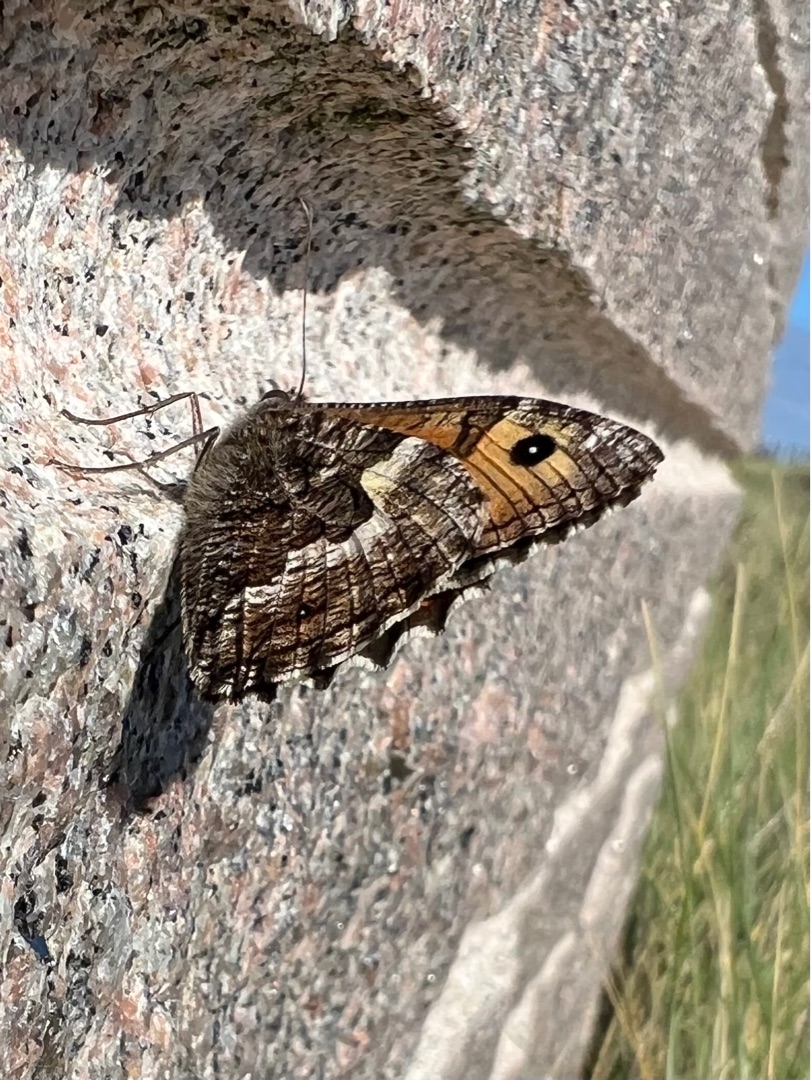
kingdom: Animalia
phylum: Arthropoda
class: Insecta
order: Lepidoptera
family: Nymphalidae
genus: Hipparchia
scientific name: Hipparchia semele
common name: Sandrandøje
